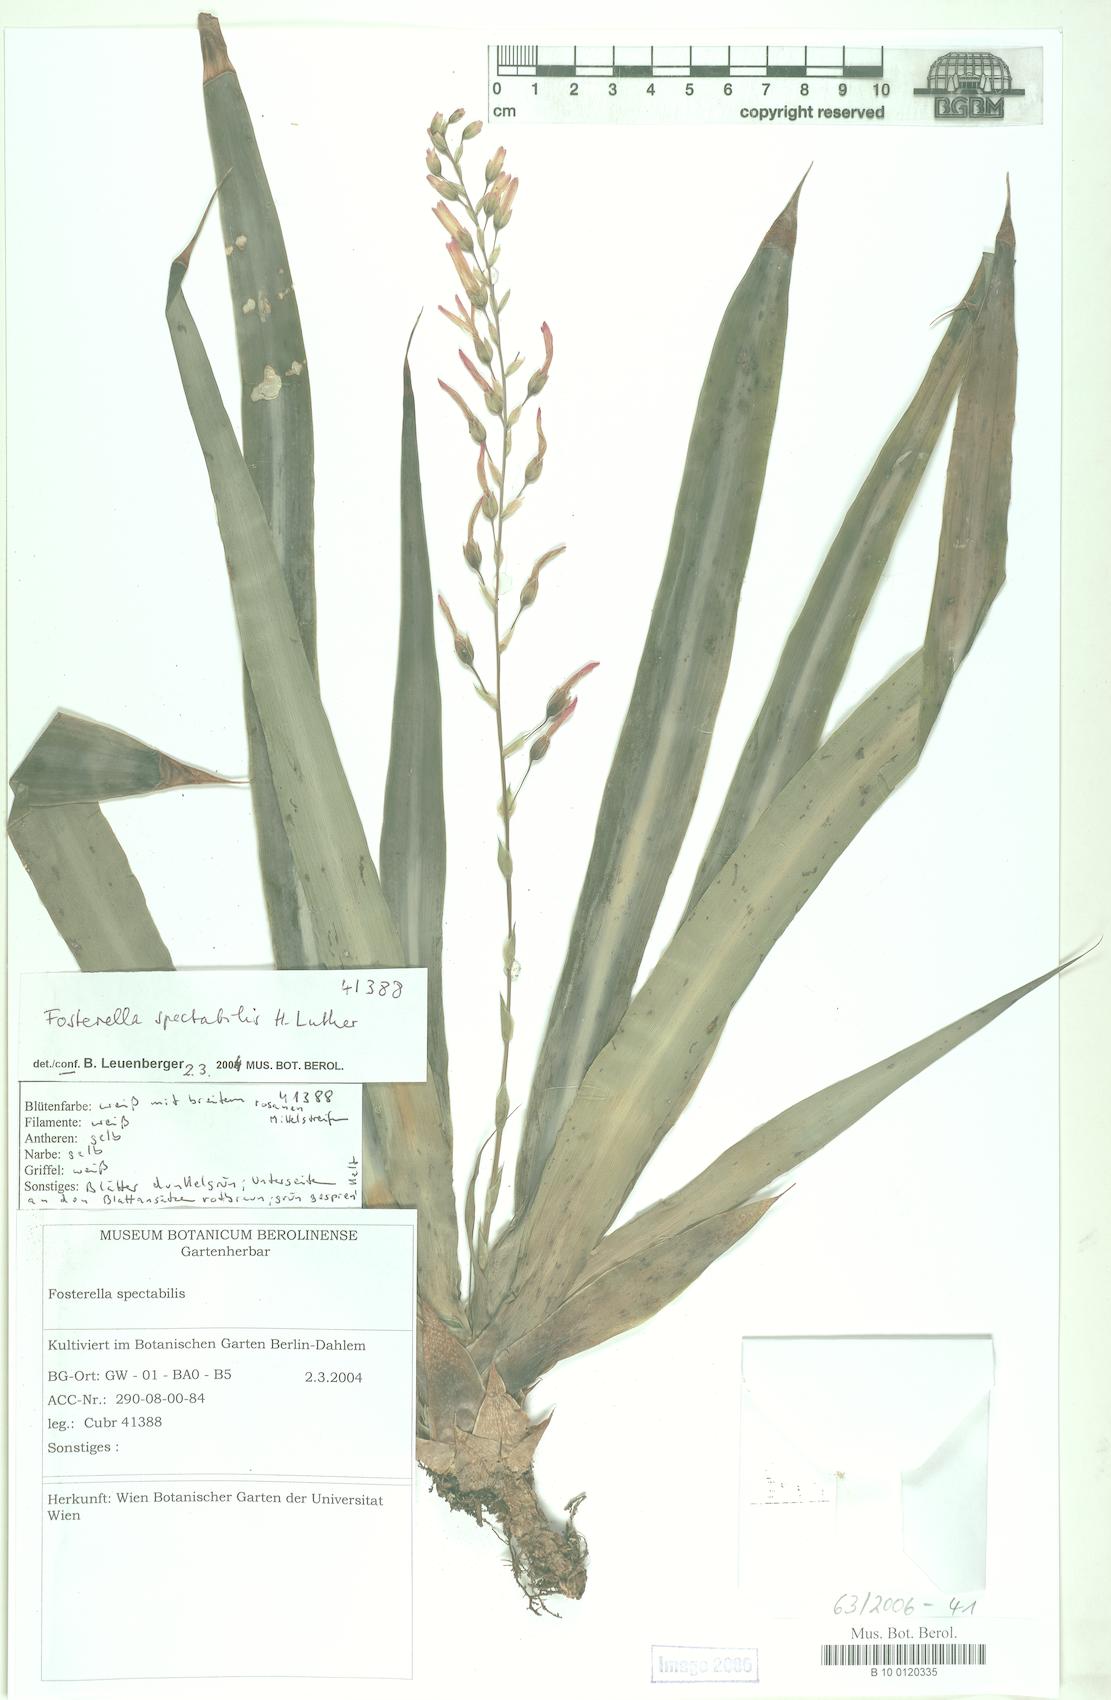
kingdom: Plantae
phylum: Tracheophyta
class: Liliopsida
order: Poales
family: Bromeliaceae
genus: Fosterella
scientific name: Fosterella spectabilis
